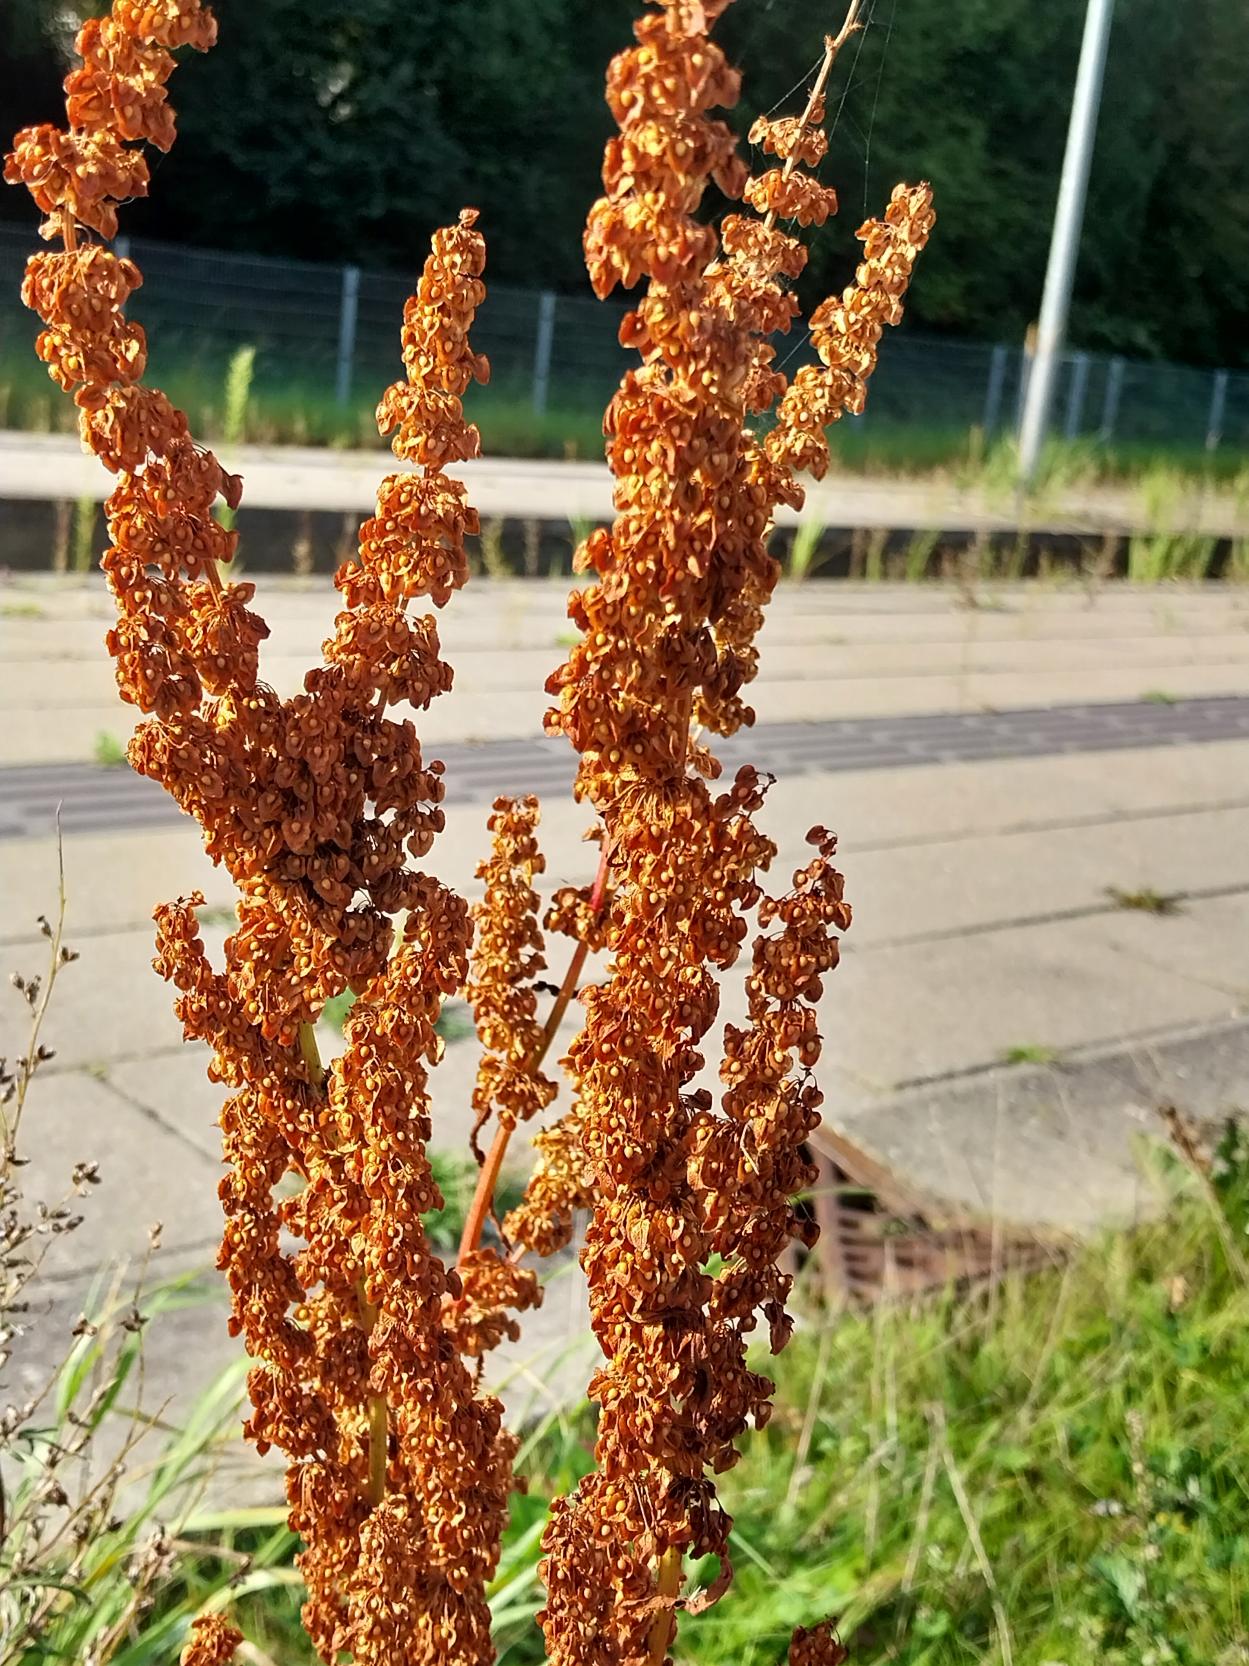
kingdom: Plantae
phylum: Tracheophyta
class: Magnoliopsida
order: Caryophyllales
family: Polygonaceae
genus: Rumex
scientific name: Rumex crispus
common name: Kruset skræppe
